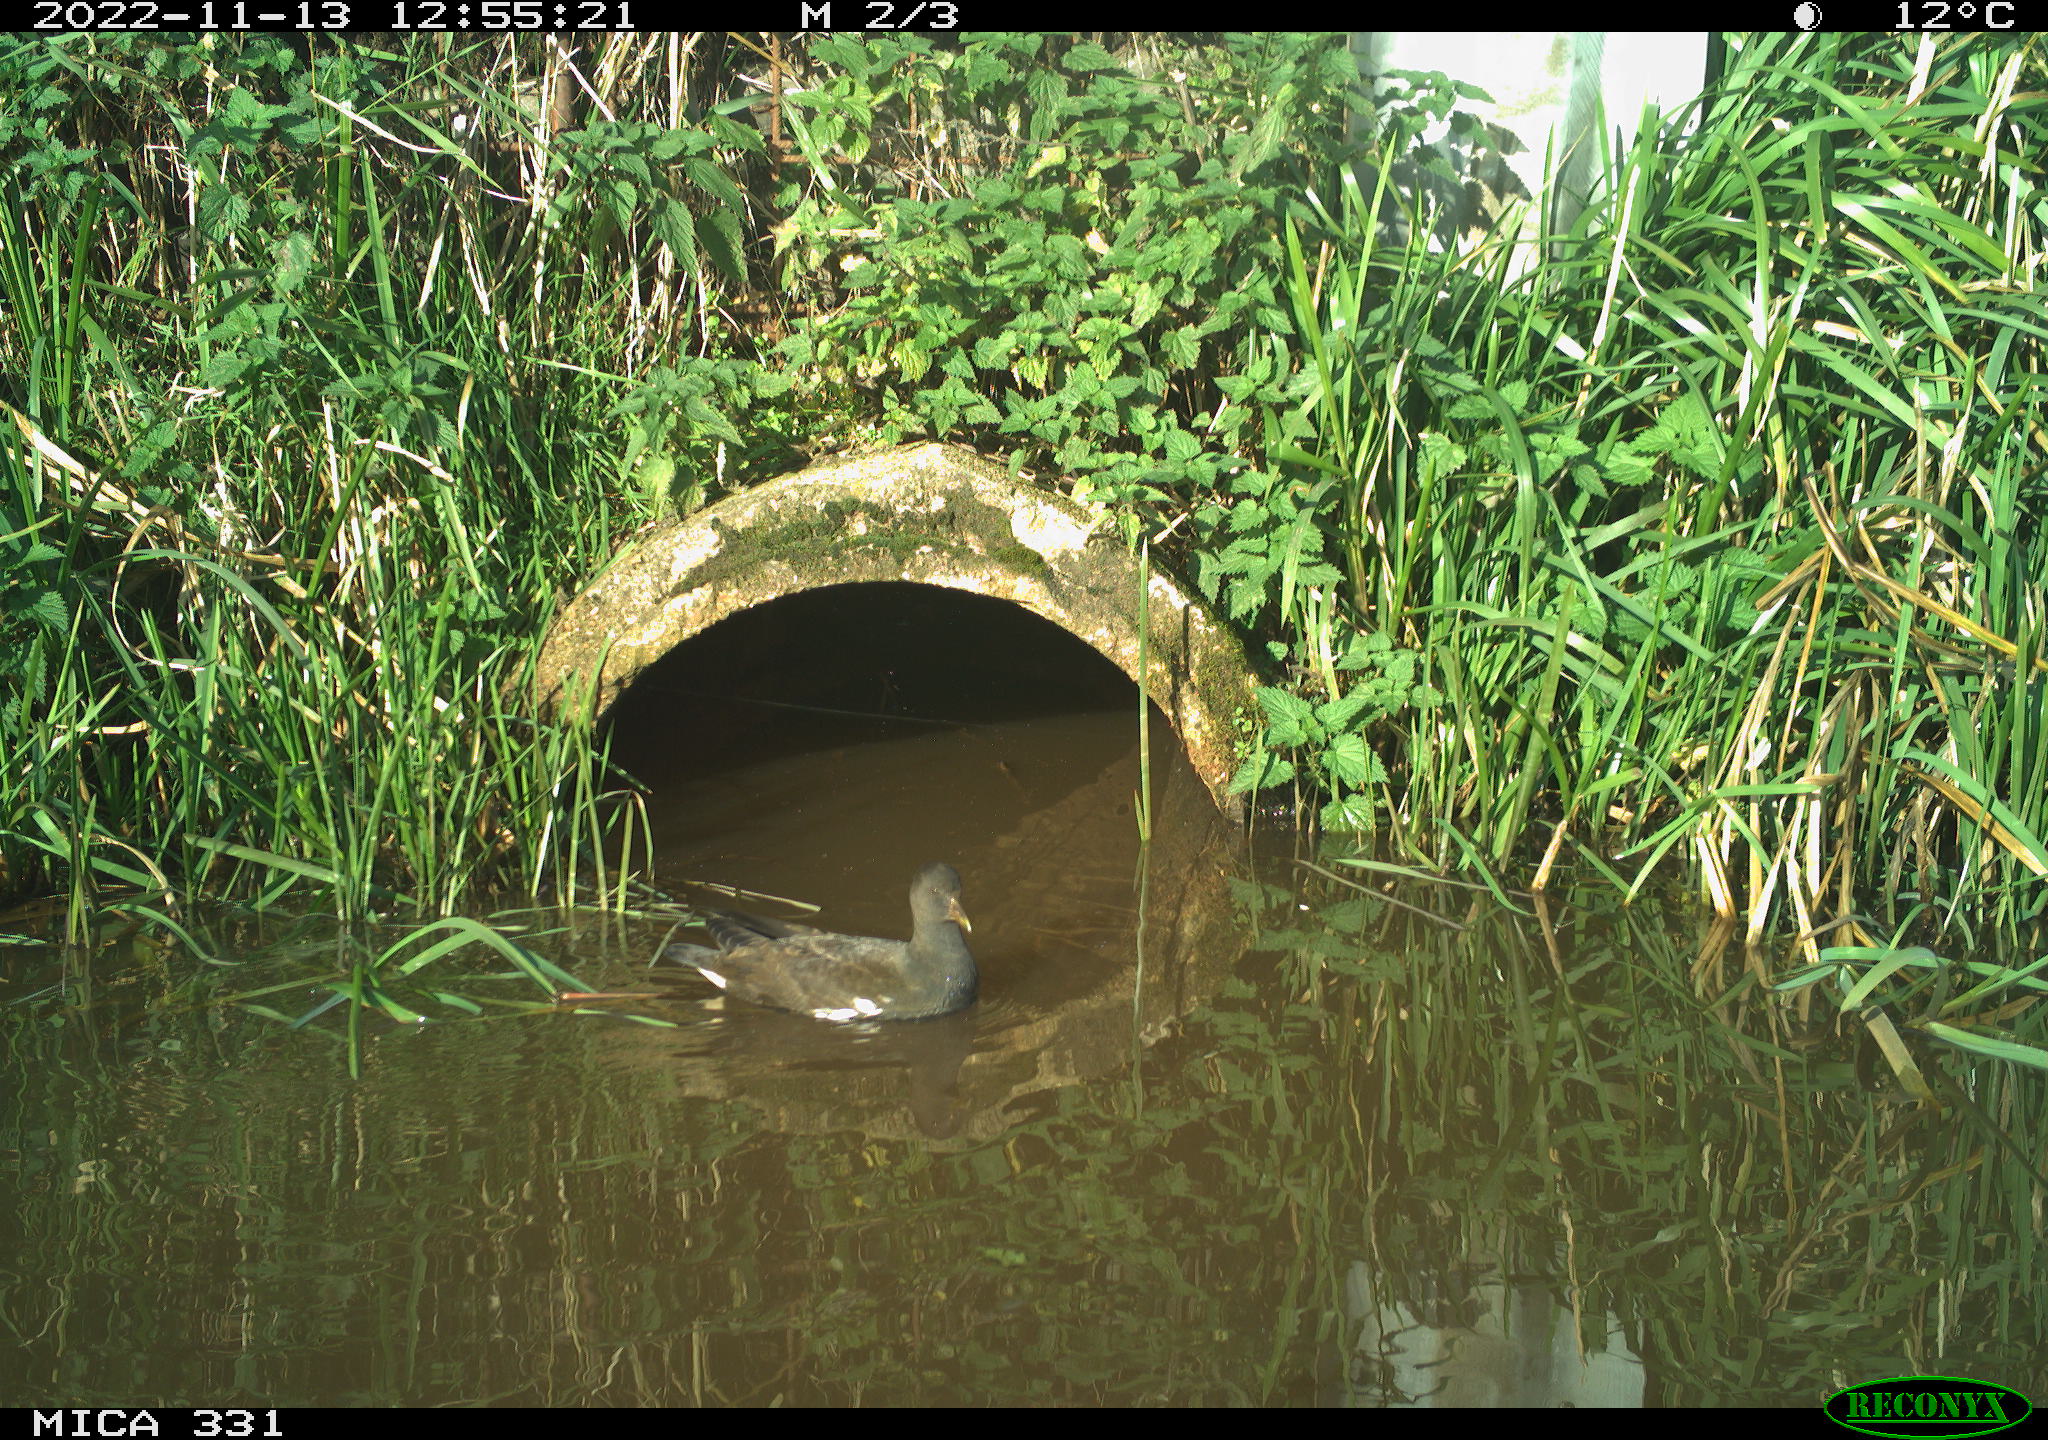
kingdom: Animalia
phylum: Chordata
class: Aves
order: Gruiformes
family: Rallidae
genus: Gallinula
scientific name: Gallinula chloropus
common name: Common moorhen
